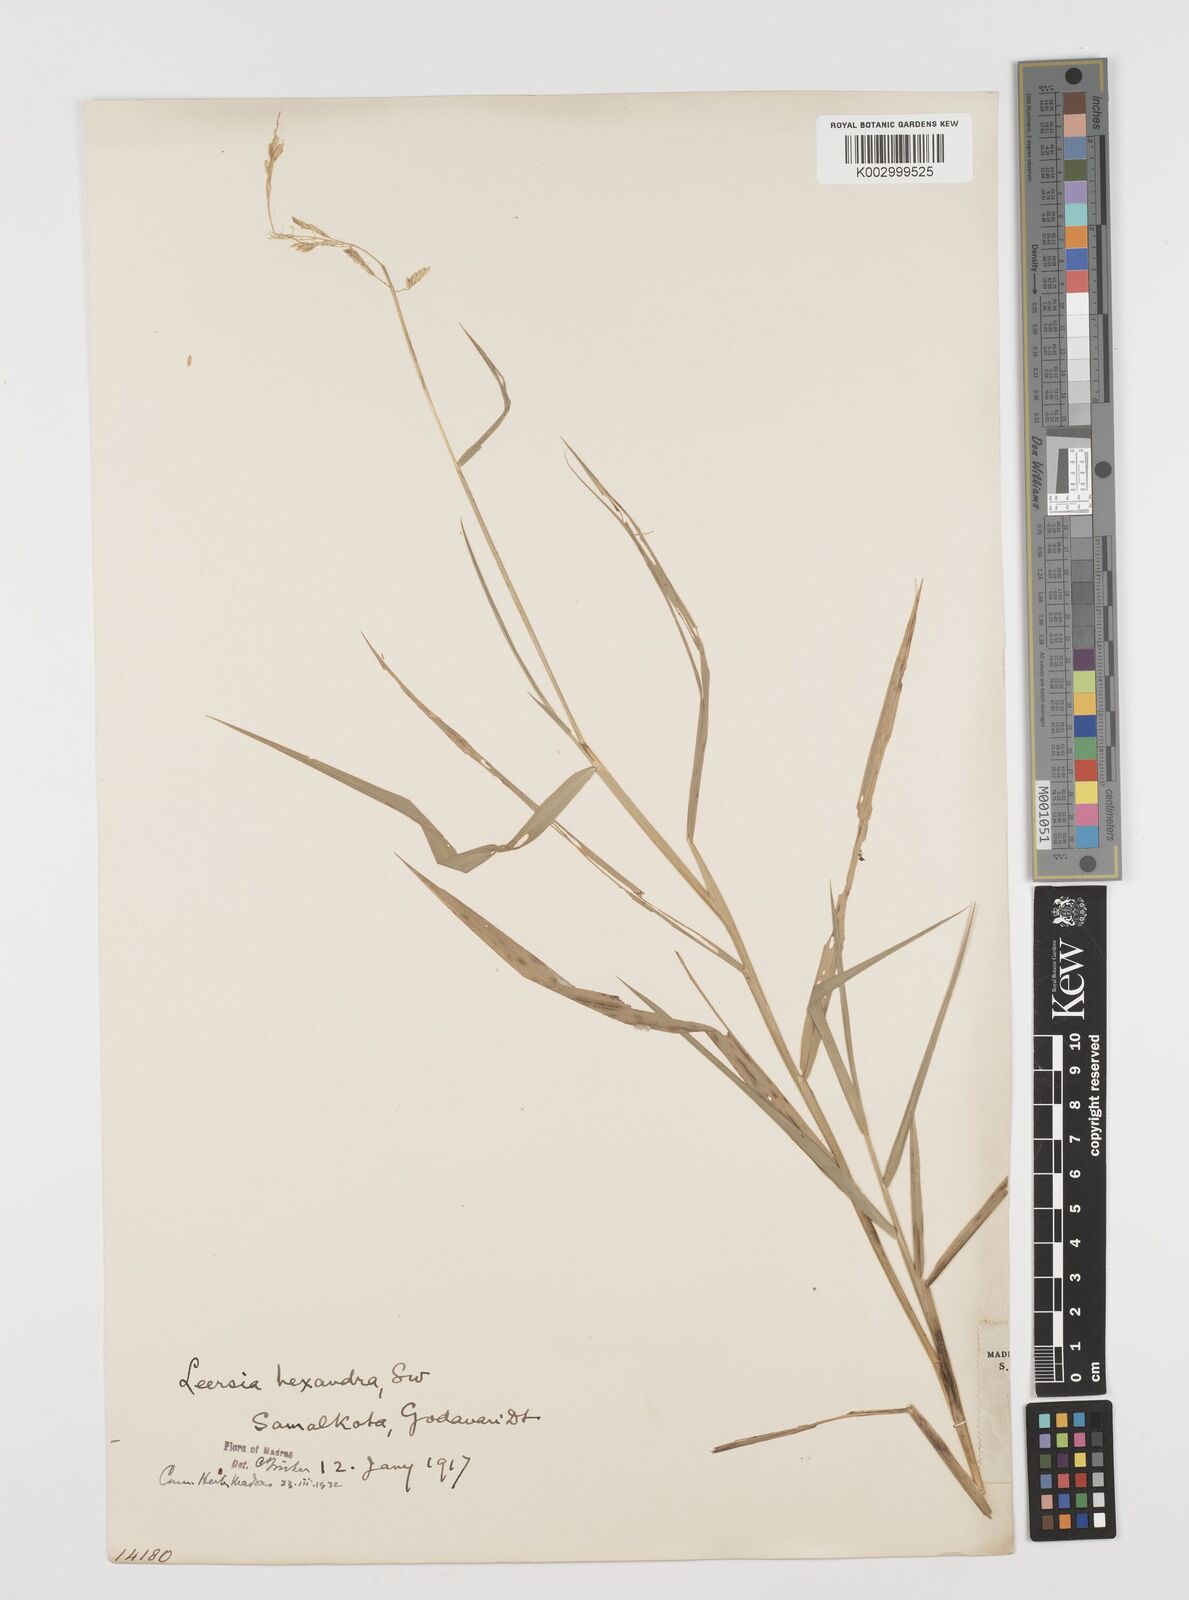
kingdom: Plantae
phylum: Tracheophyta
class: Liliopsida
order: Poales
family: Poaceae
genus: Leersia
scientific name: Leersia hexandra
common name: Southern cut grass
